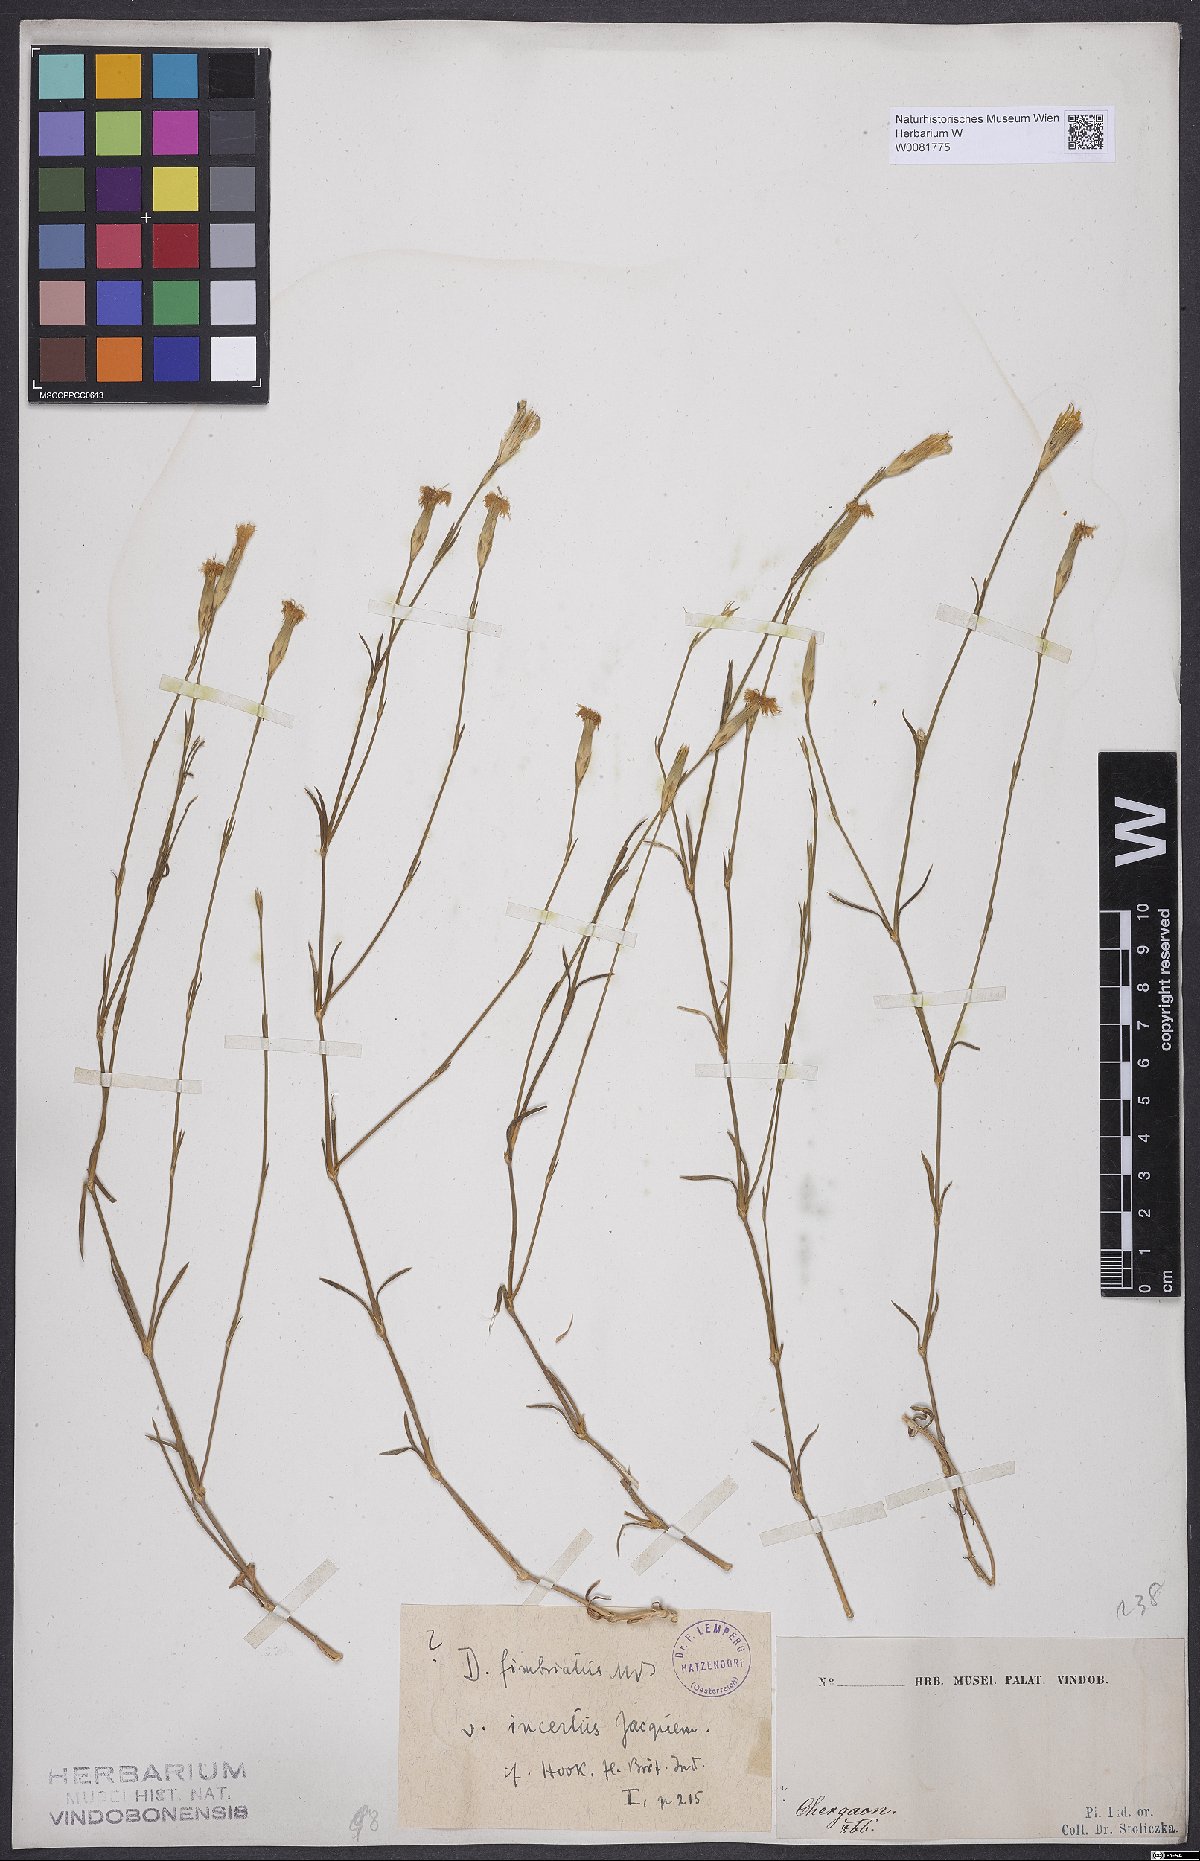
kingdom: Plantae
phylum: Tracheophyta
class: Magnoliopsida
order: Caryophyllales
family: Caryophyllaceae
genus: Dianthus
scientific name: Dianthus broteri
